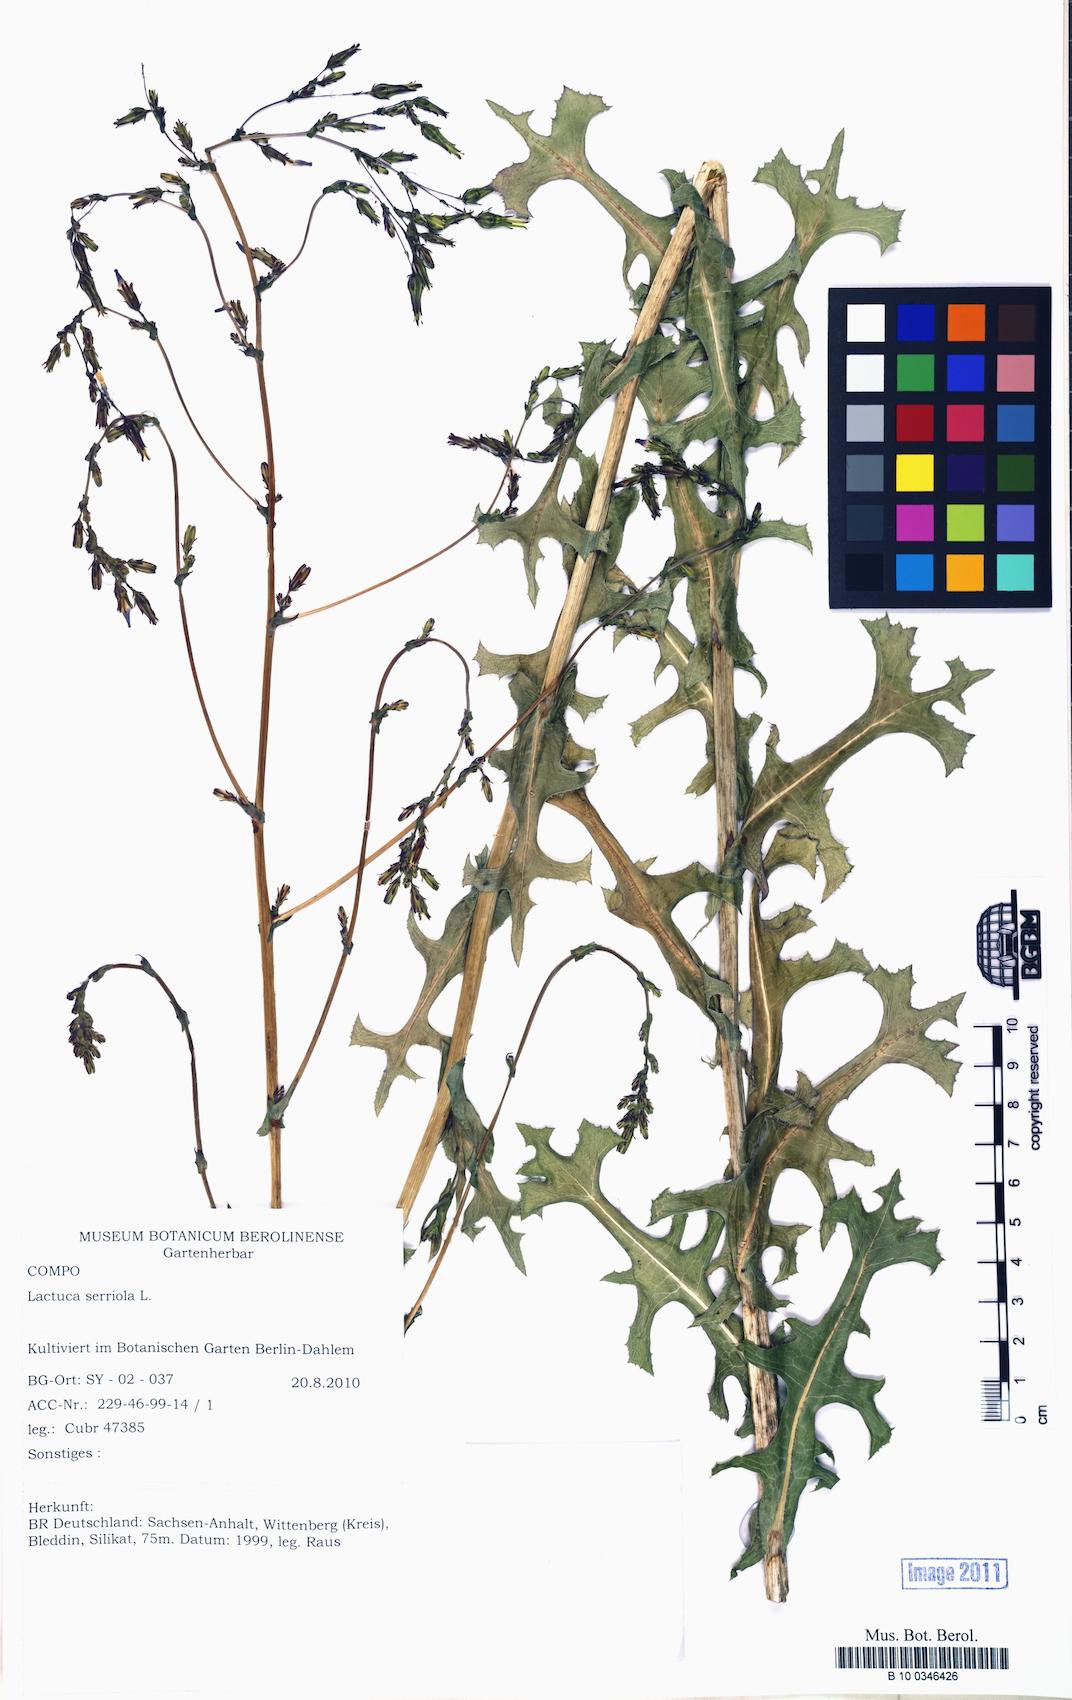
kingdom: Plantae
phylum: Tracheophyta
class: Magnoliopsida
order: Asterales
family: Asteraceae
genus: Lactuca
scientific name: Lactuca serriola
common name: Prickly lettuce
